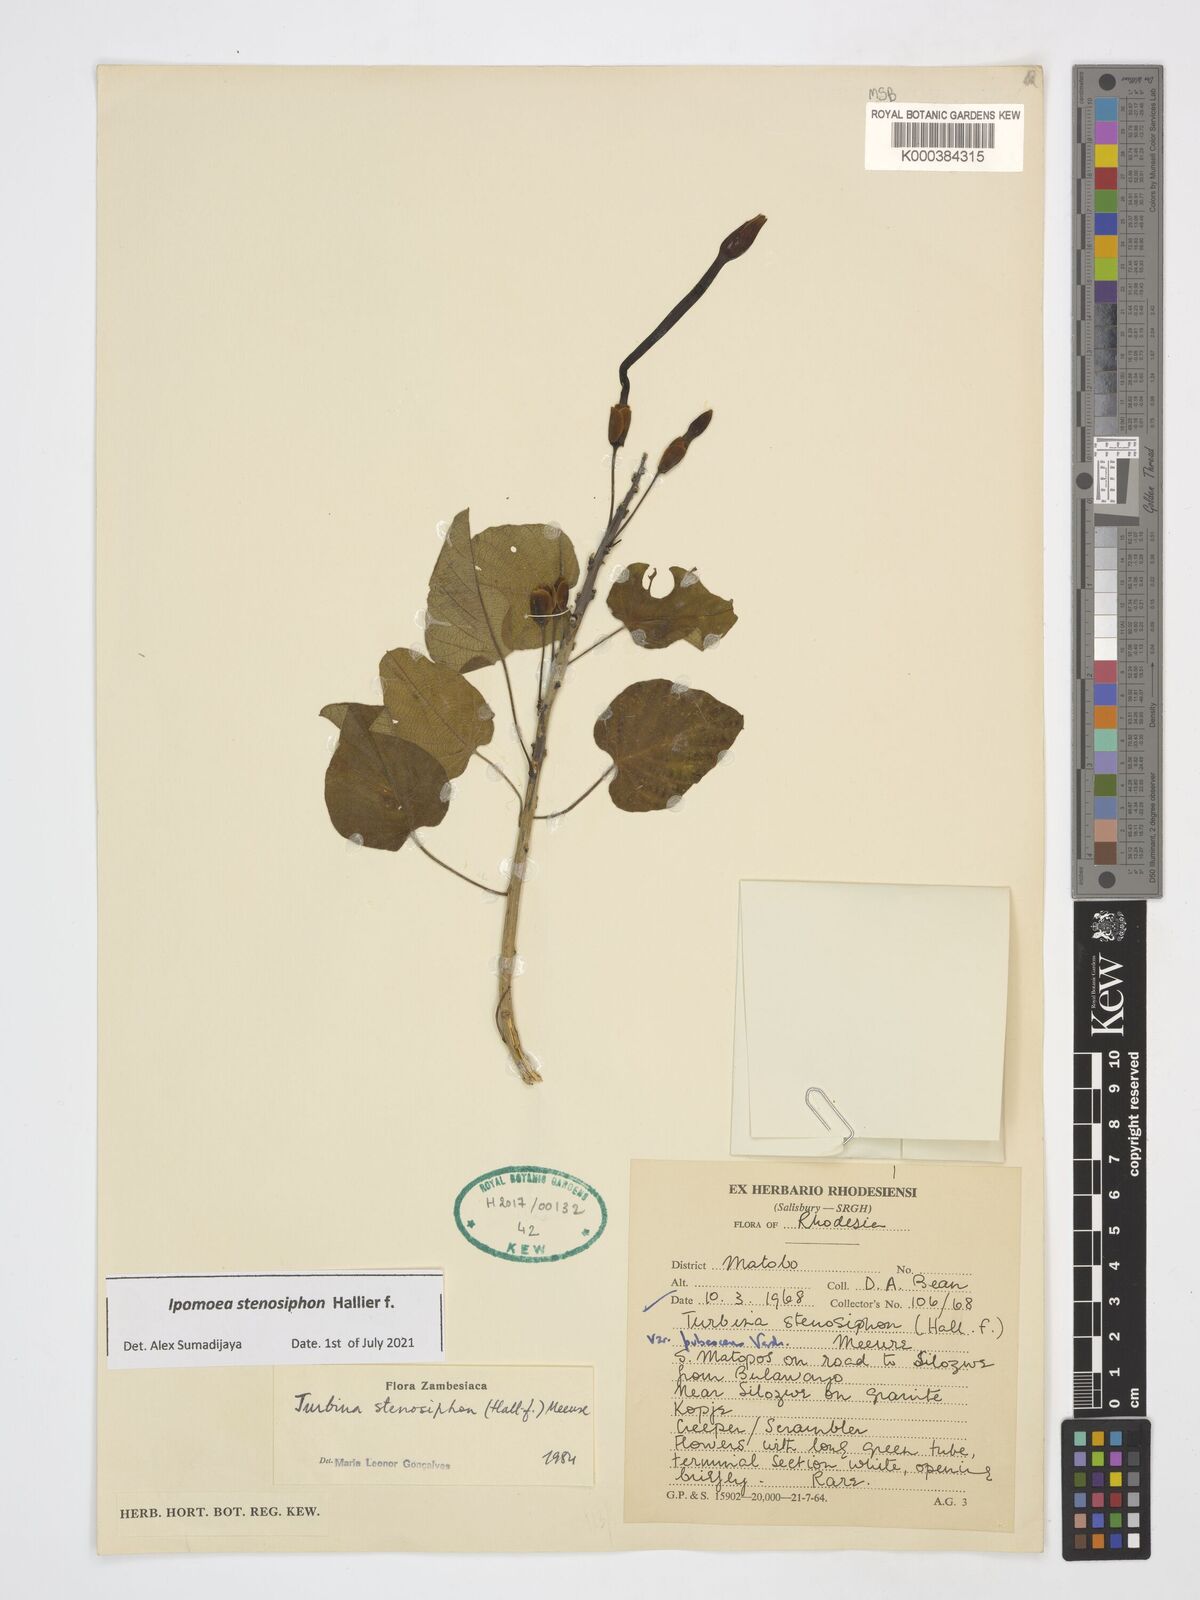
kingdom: Plantae
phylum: Tracheophyta
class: Magnoliopsida
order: Solanales
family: Convolvulaceae
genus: Ipomoea
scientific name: Ipomoea stenosiphon
